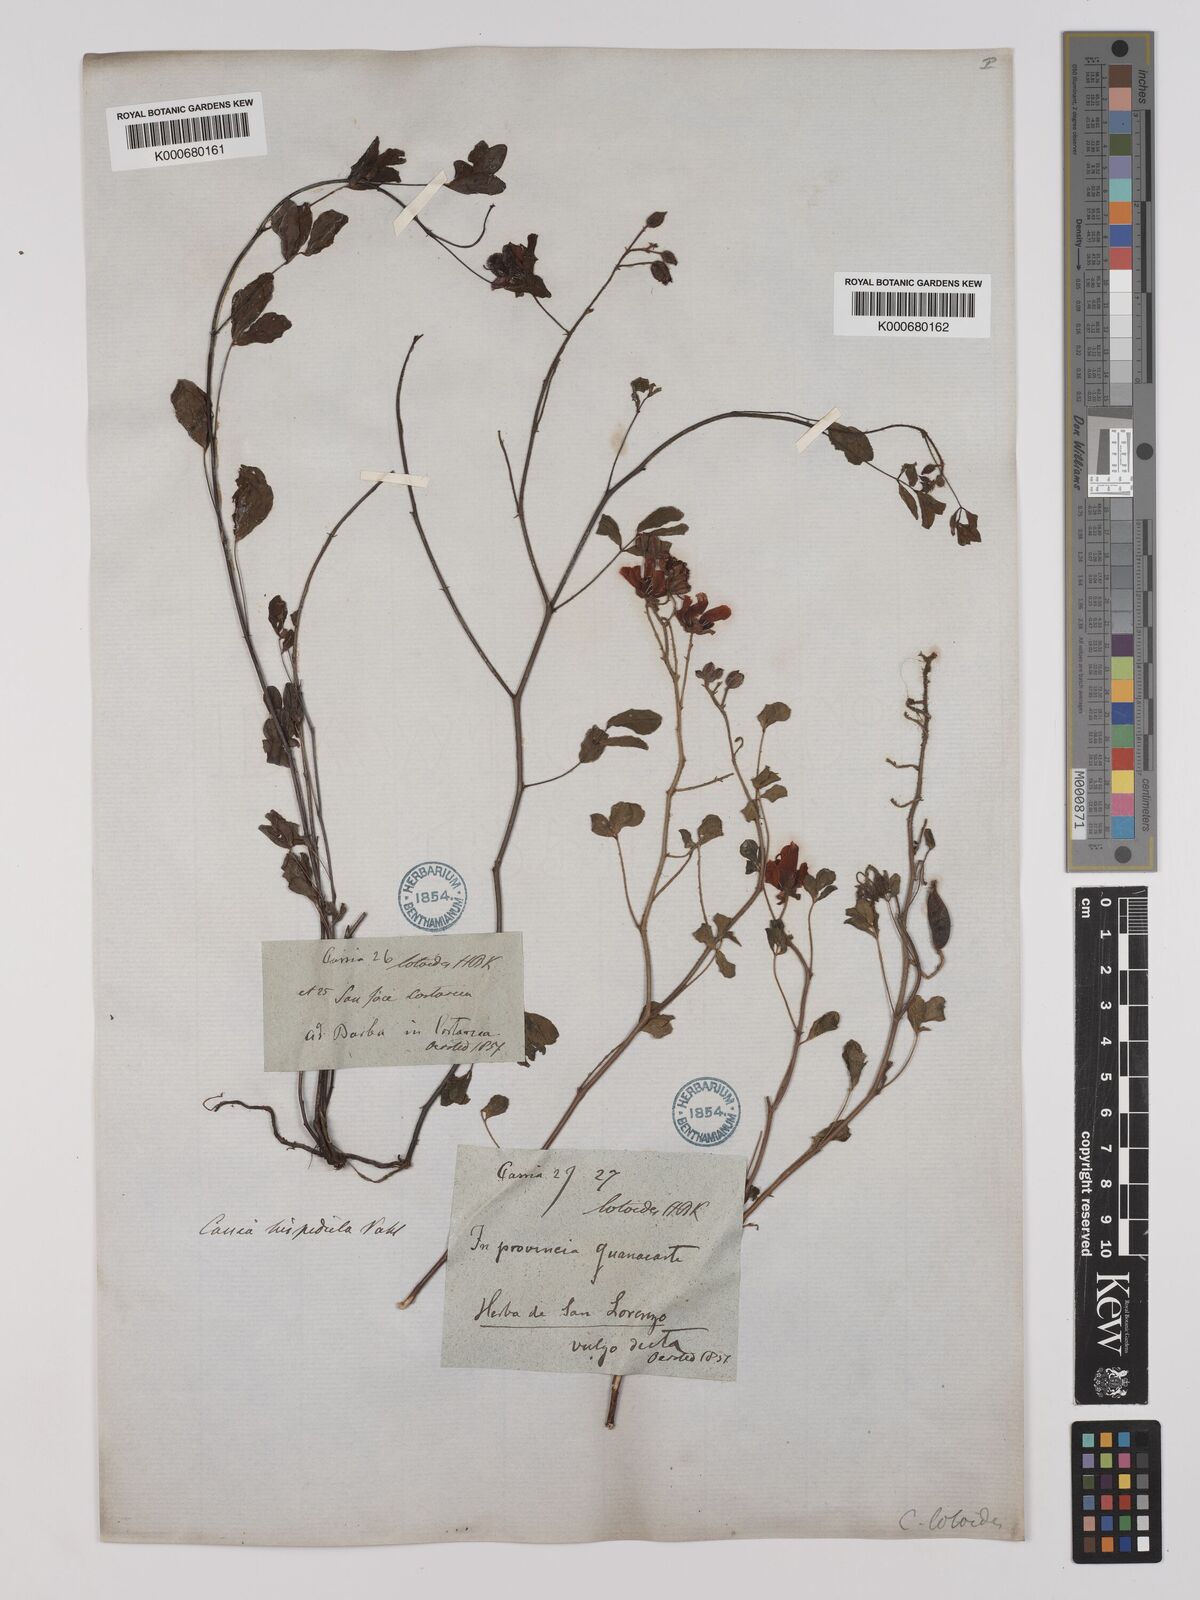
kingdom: Plantae
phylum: Tracheophyta
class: Magnoliopsida
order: Fabales
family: Fabaceae
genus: Chamaecrista
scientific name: Chamaecrista hispidula
